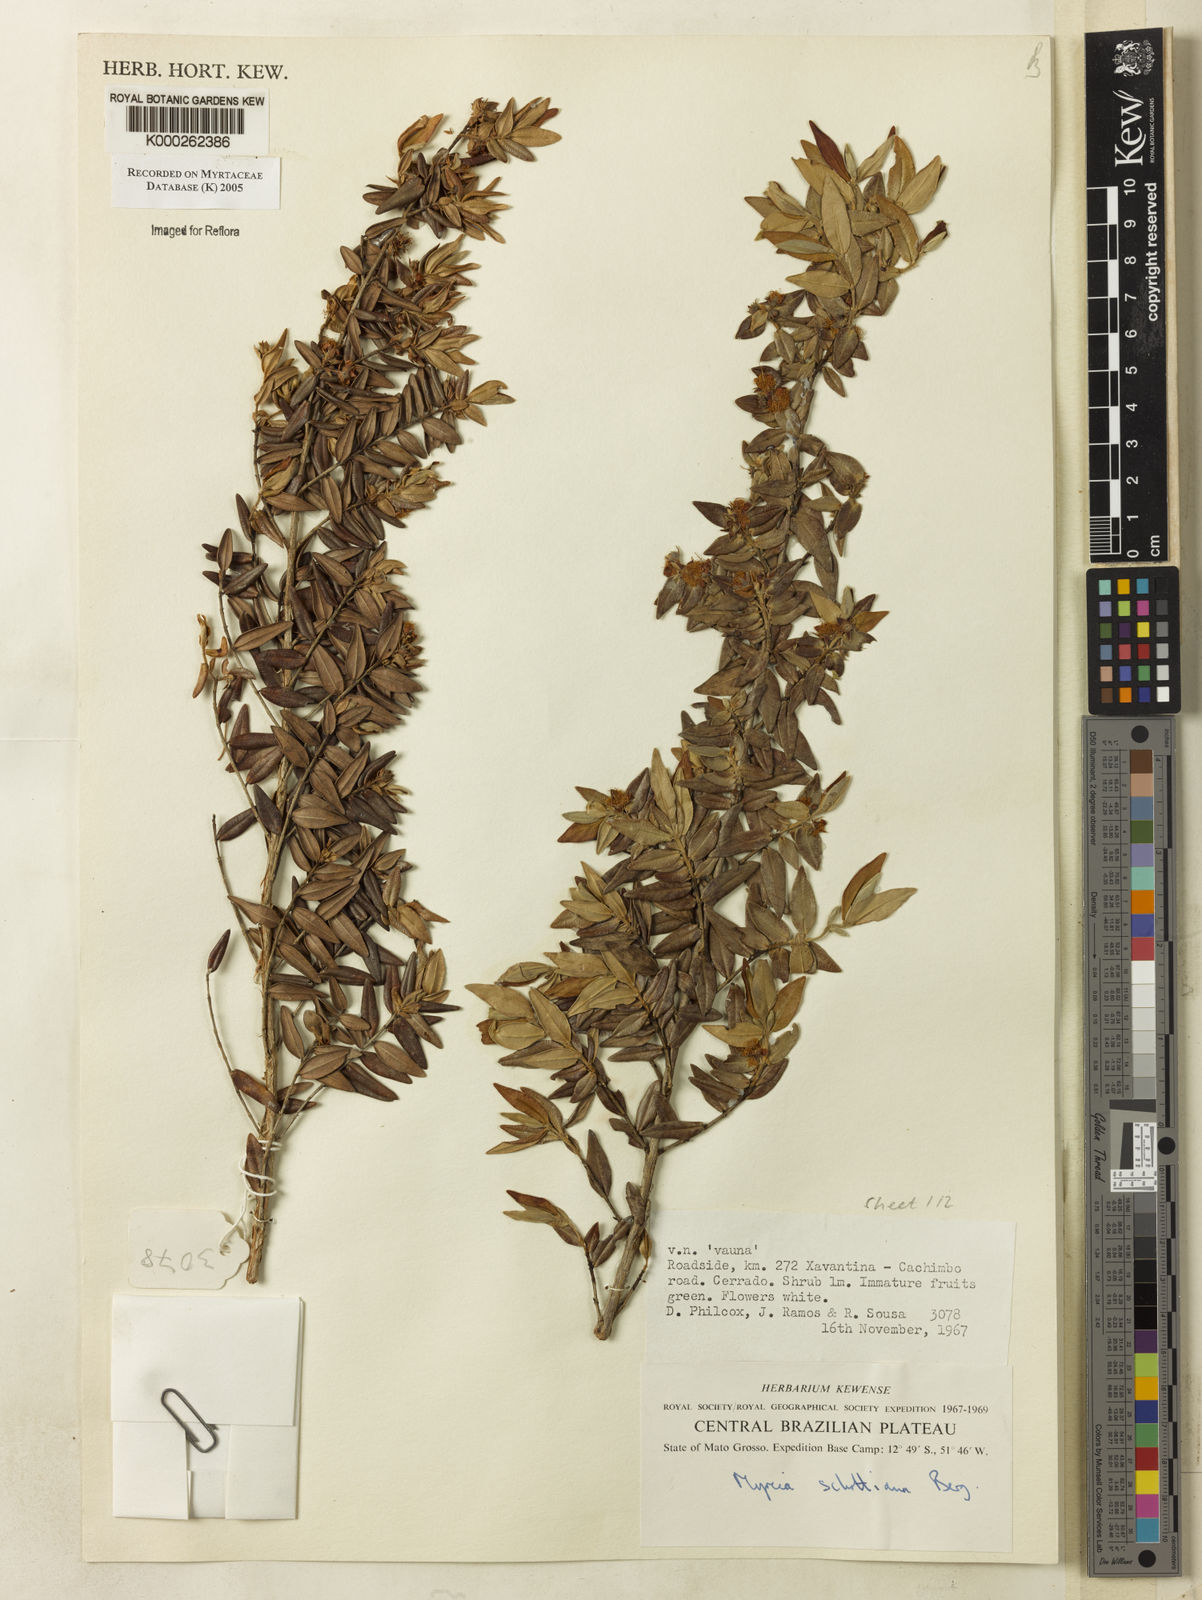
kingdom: Plantae
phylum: Tracheophyta
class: Magnoliopsida
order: Myrtales
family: Myrtaceae
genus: Myrcia
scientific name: Myrcia schottiana
